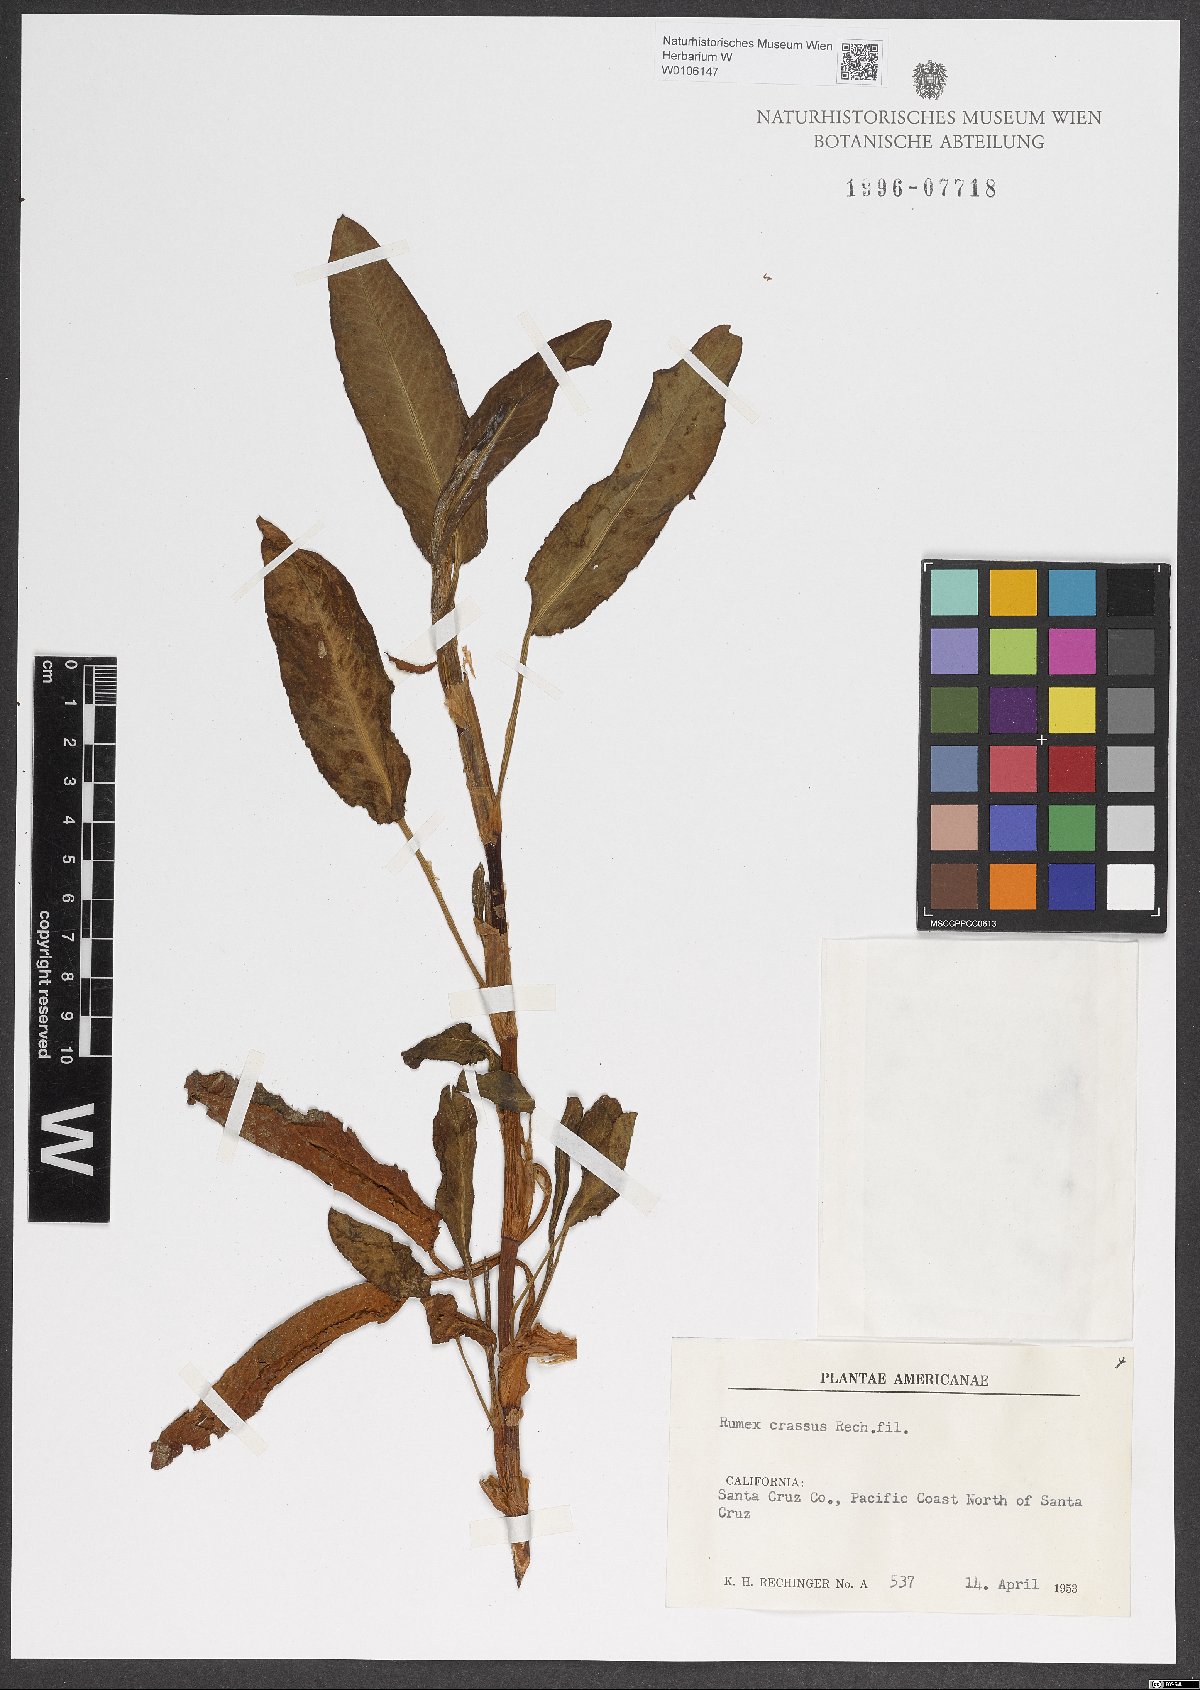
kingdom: Plantae
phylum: Tracheophyta
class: Magnoliopsida
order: Caryophyllales
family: Polygonaceae
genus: Rumex
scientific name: Rumex crassus
